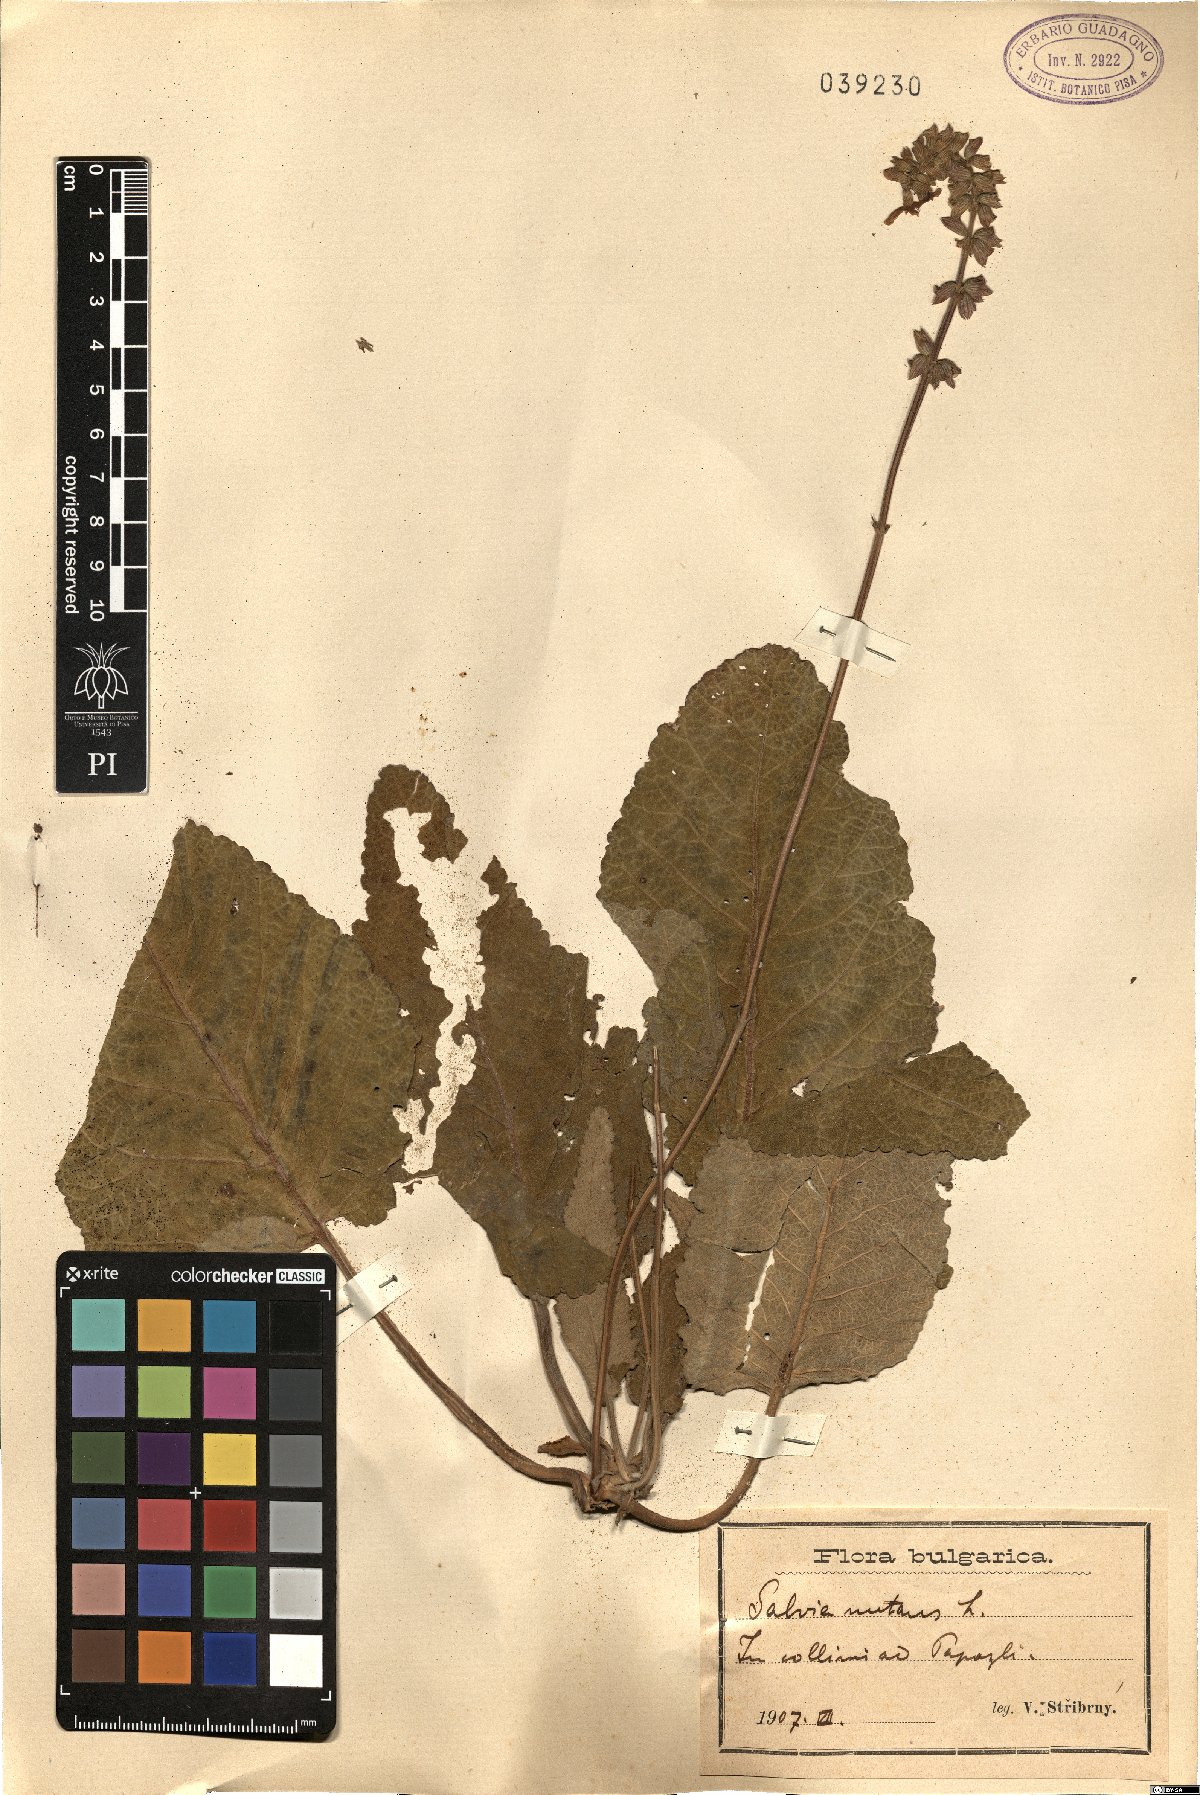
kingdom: Plantae
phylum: Tracheophyta
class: Magnoliopsida
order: Lamiales
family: Lamiaceae
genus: Salvia
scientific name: Salvia nutans
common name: Nodding sage
